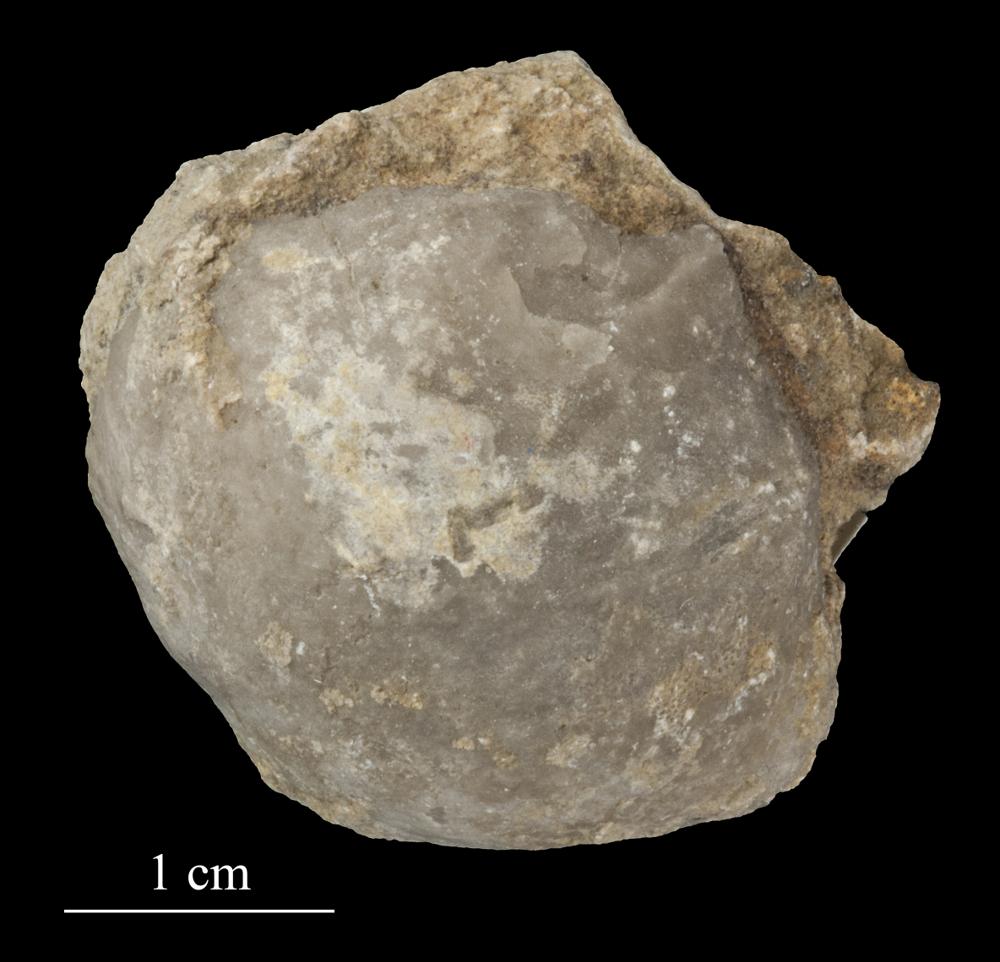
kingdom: Animalia
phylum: Brachiopoda
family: Strophomenidae
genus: Tallinnites
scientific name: Tallinnites Oepikina imbrexoidea
